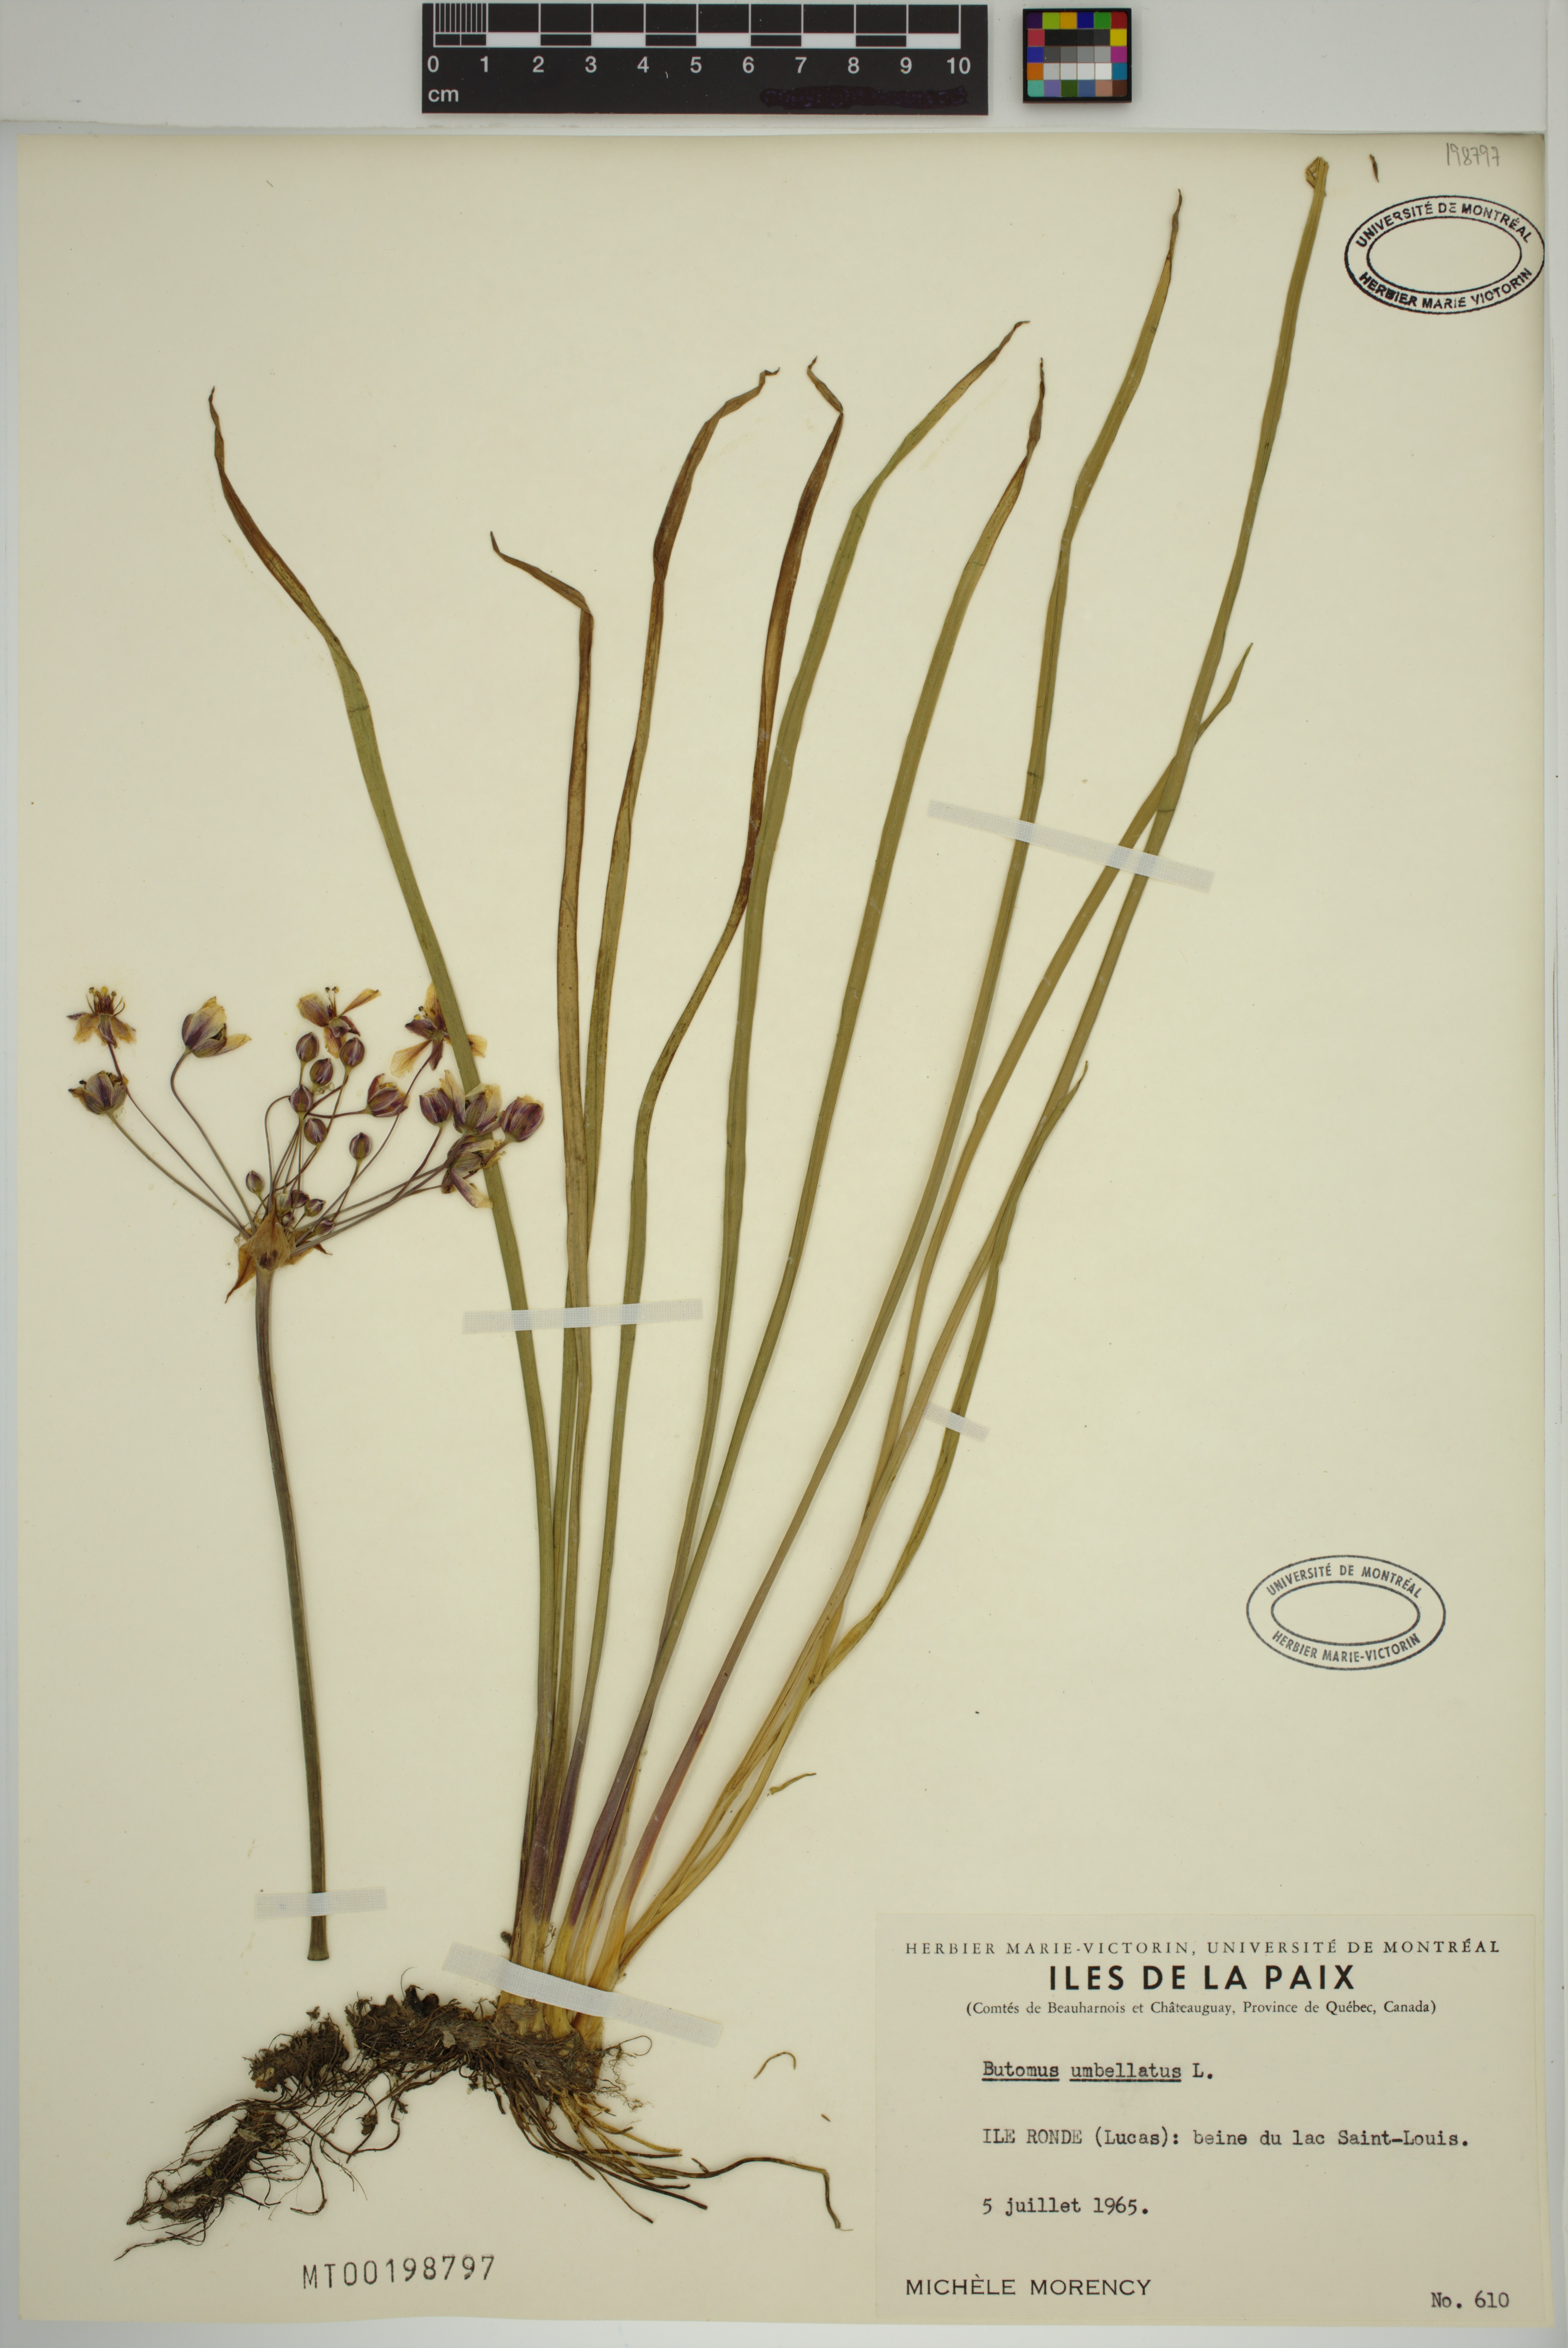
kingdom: Plantae
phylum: Tracheophyta
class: Liliopsida
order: Alismatales
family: Butomaceae
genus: Butomus
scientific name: Butomus umbellatus
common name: Flowering-rush
